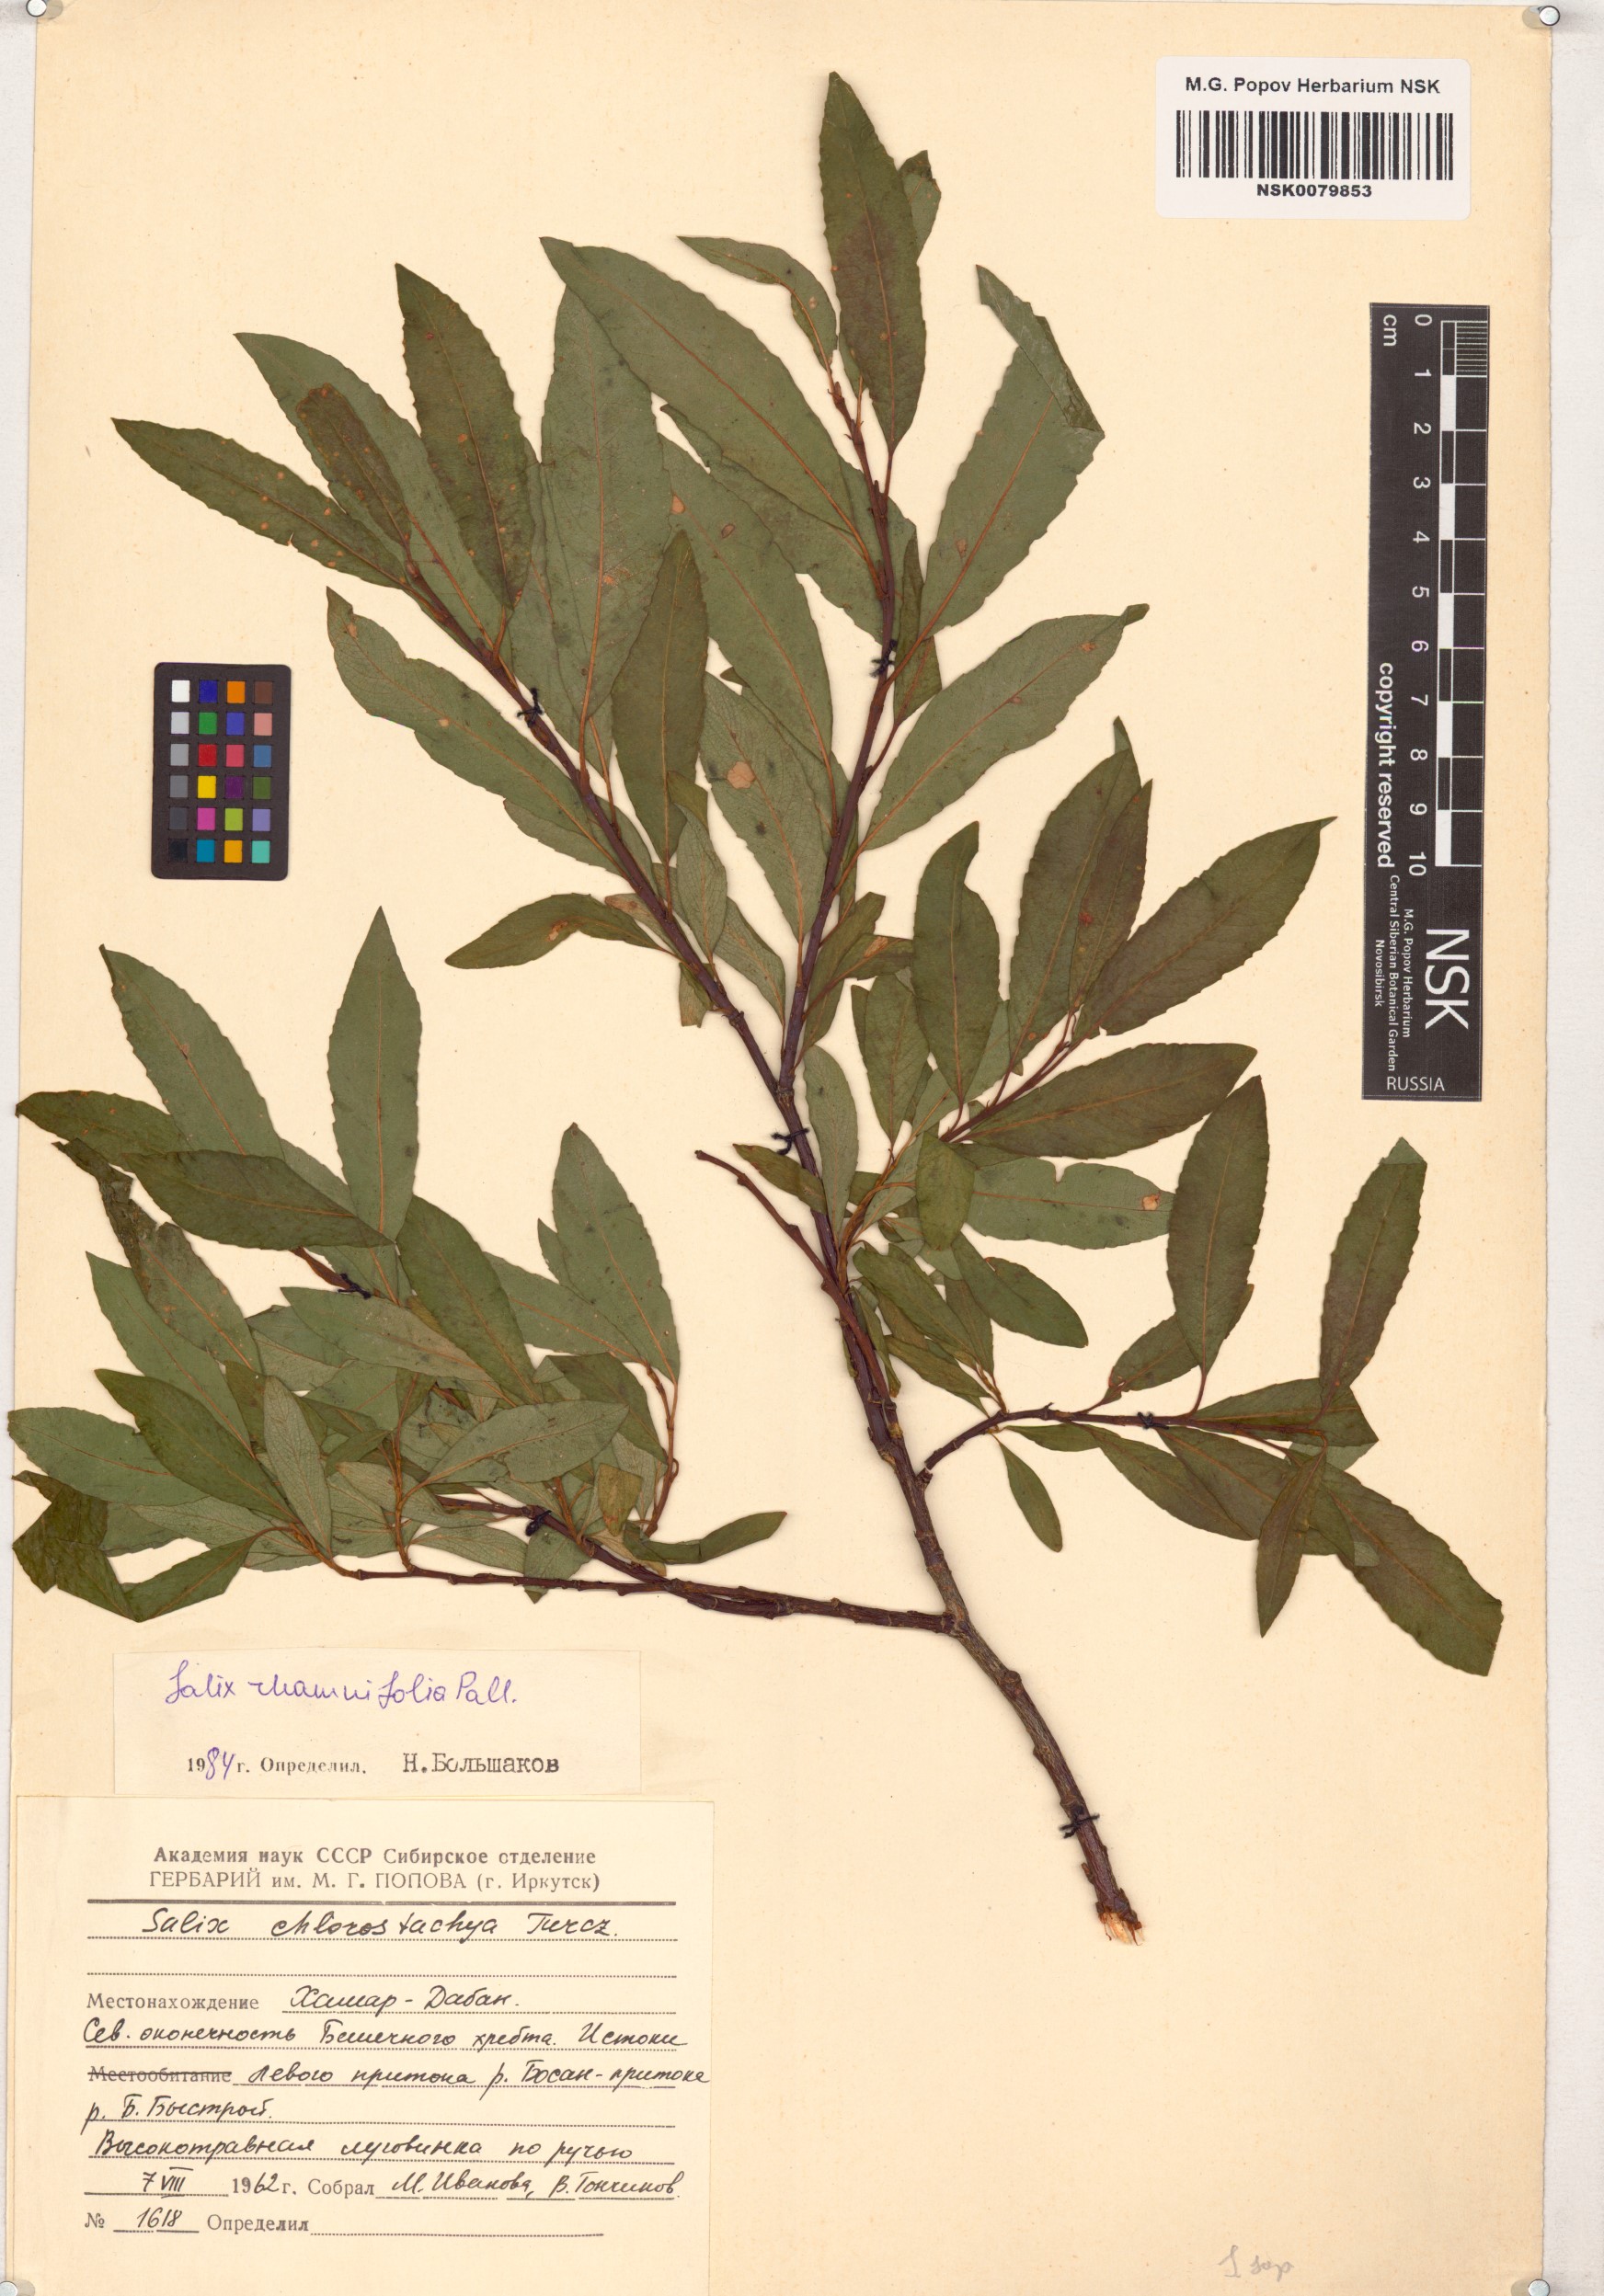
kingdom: Plantae
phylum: Tracheophyta
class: Magnoliopsida
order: Malpighiales
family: Salicaceae
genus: Salix
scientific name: Salix rhamnifolia
